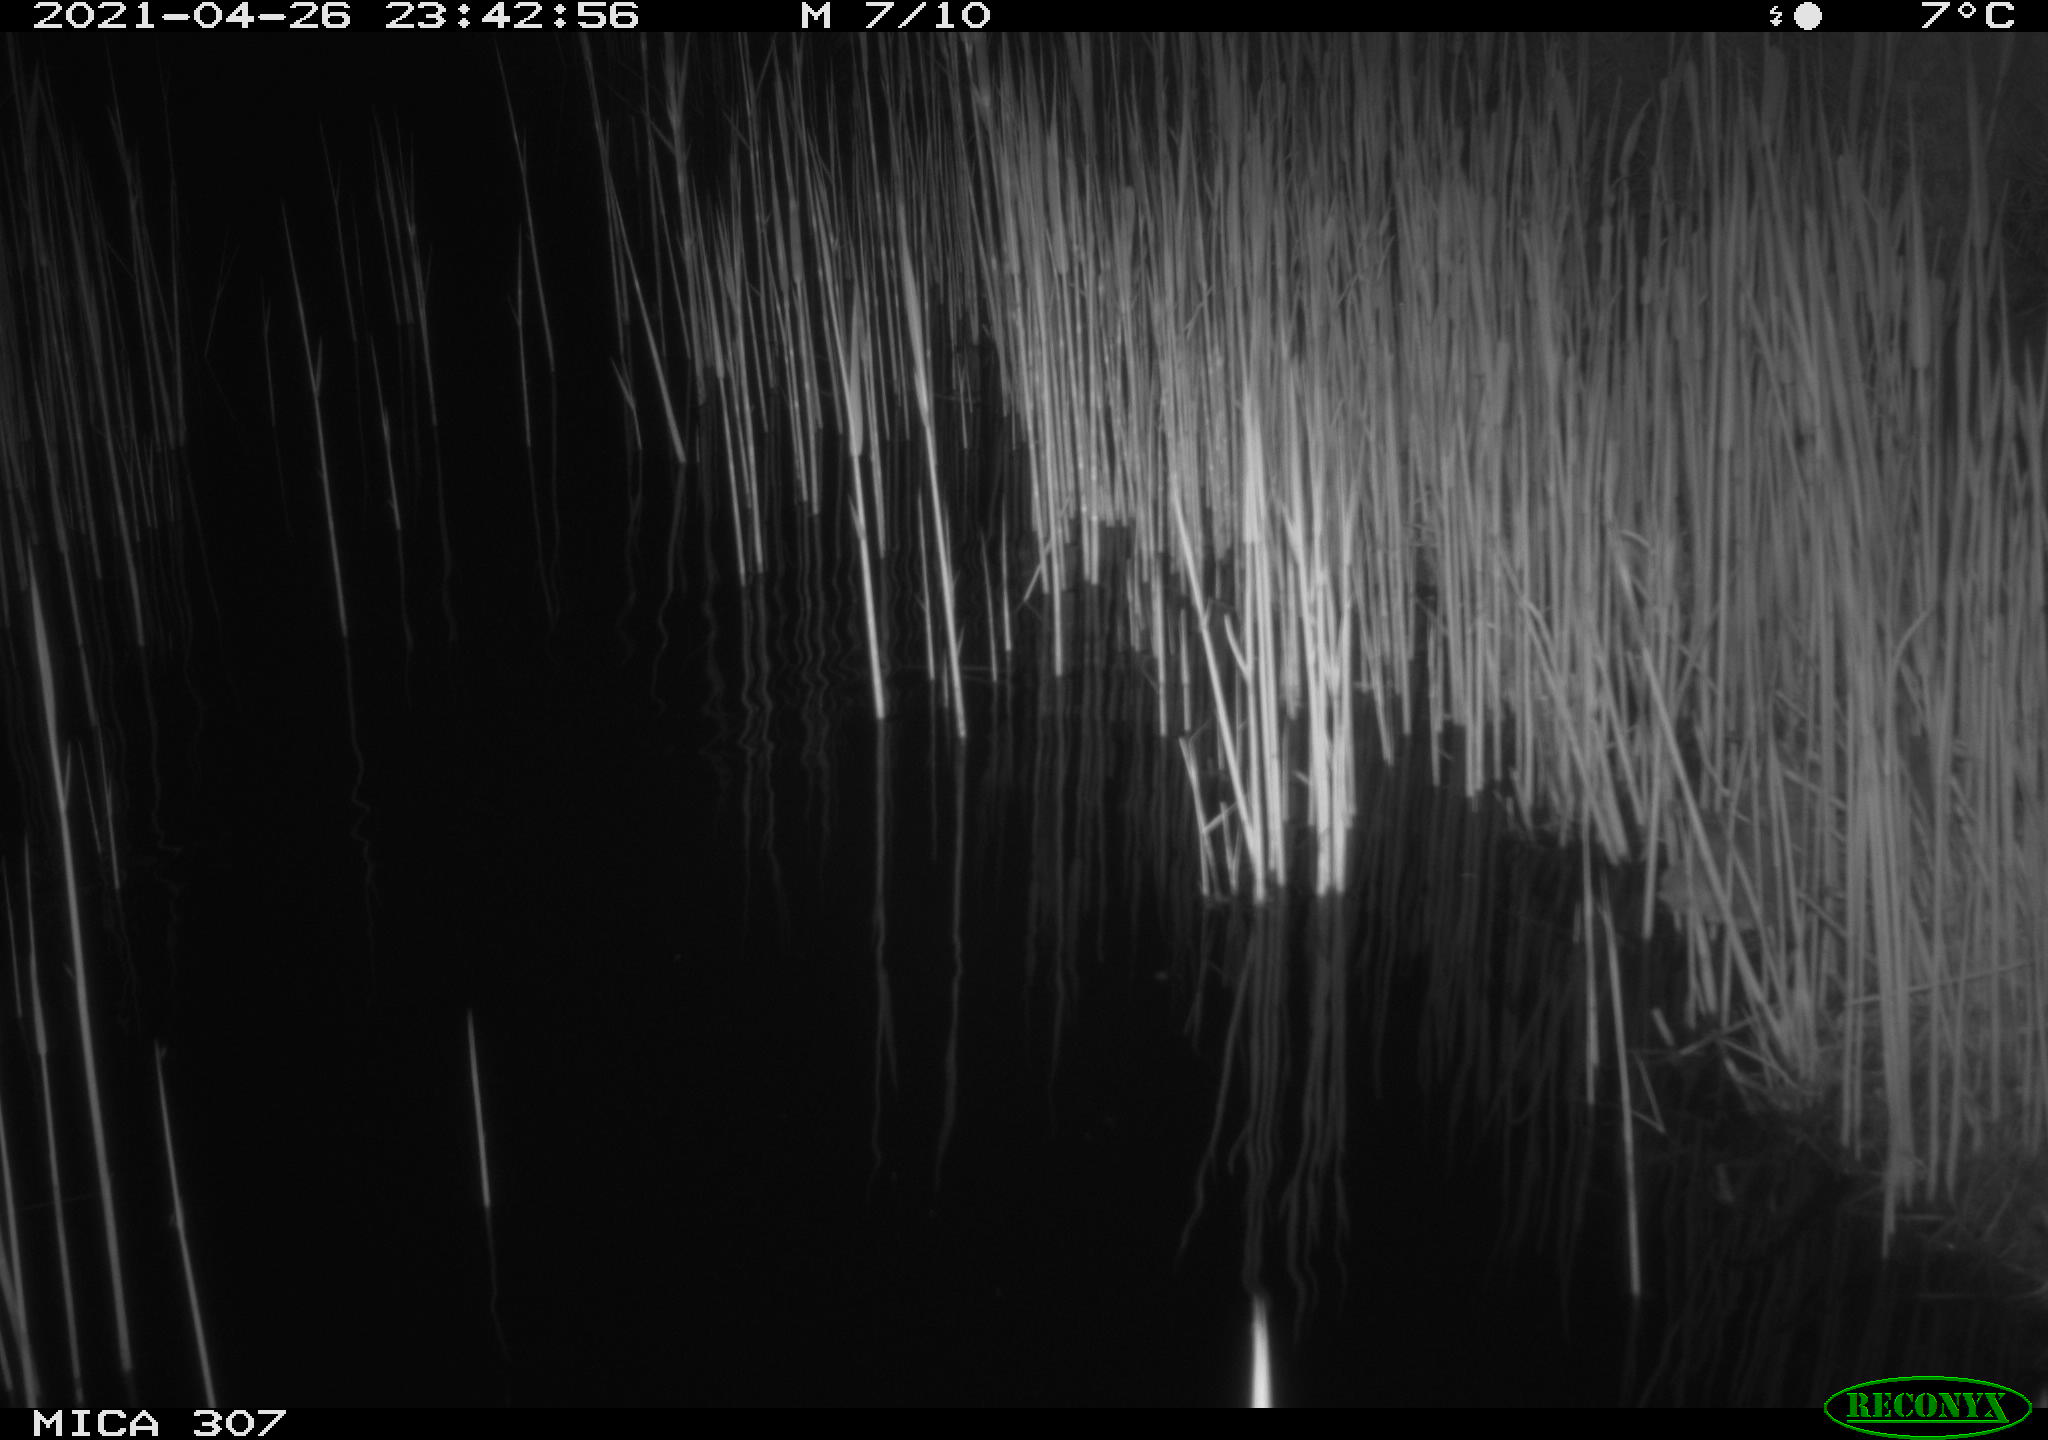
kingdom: Animalia
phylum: Chordata
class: Mammalia
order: Rodentia
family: Muridae
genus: Rattus
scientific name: Rattus norvegicus
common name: Brown rat
